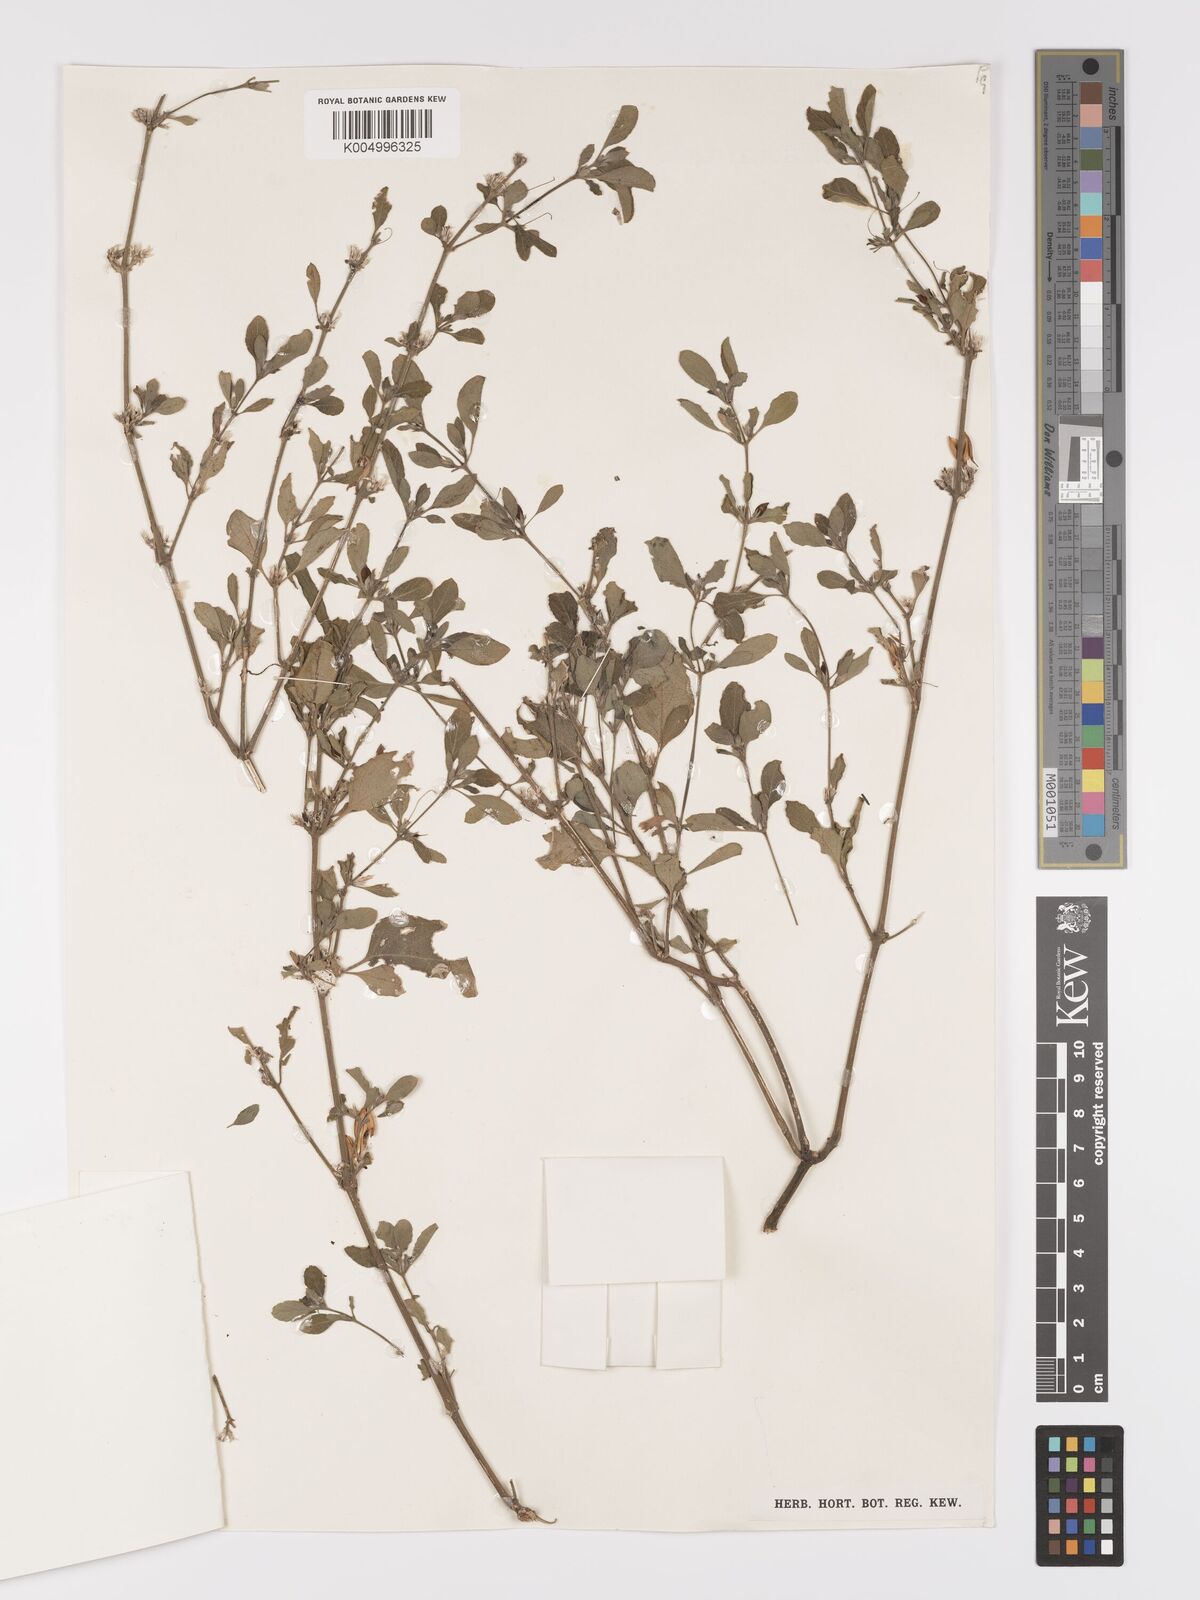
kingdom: Plantae
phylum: Tracheophyta
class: Magnoliopsida
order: Lamiales
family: Acanthaceae
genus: Ruellia
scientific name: Ruellia patula
